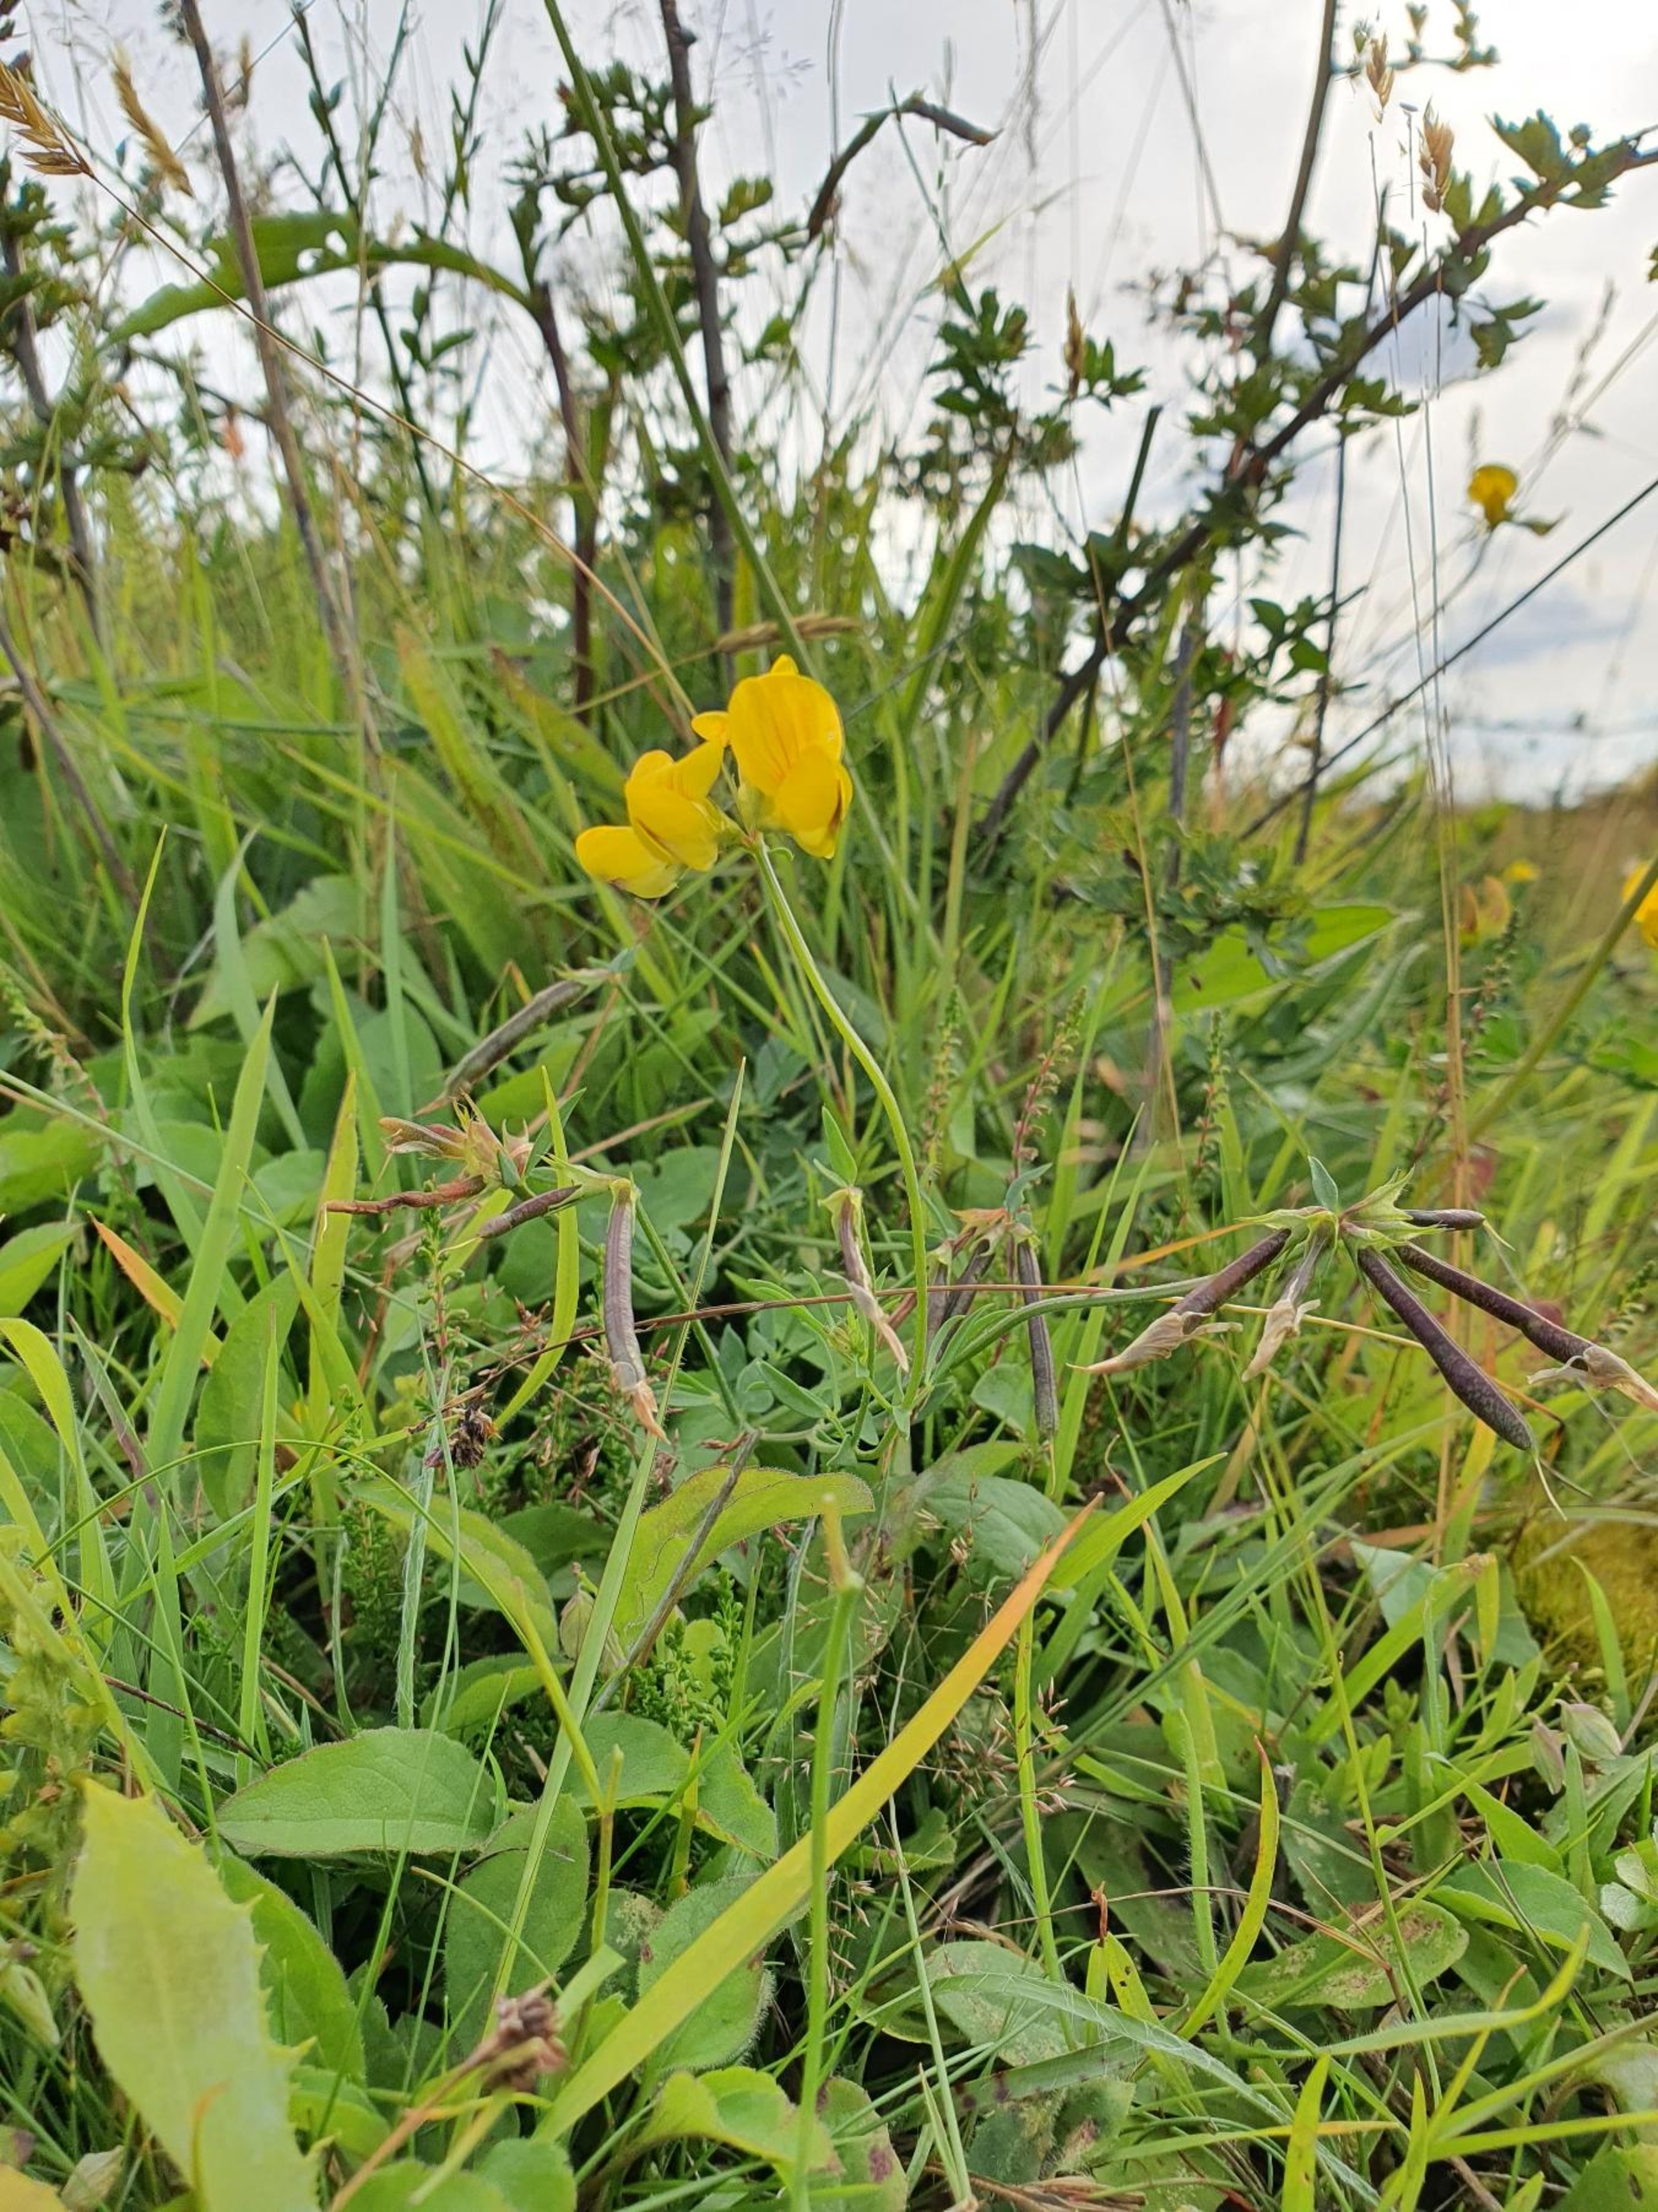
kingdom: Plantae
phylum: Tracheophyta
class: Magnoliopsida
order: Fabales
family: Fabaceae
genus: Lotus
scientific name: Lotus corniculatus
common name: Almindelig kællingetand
